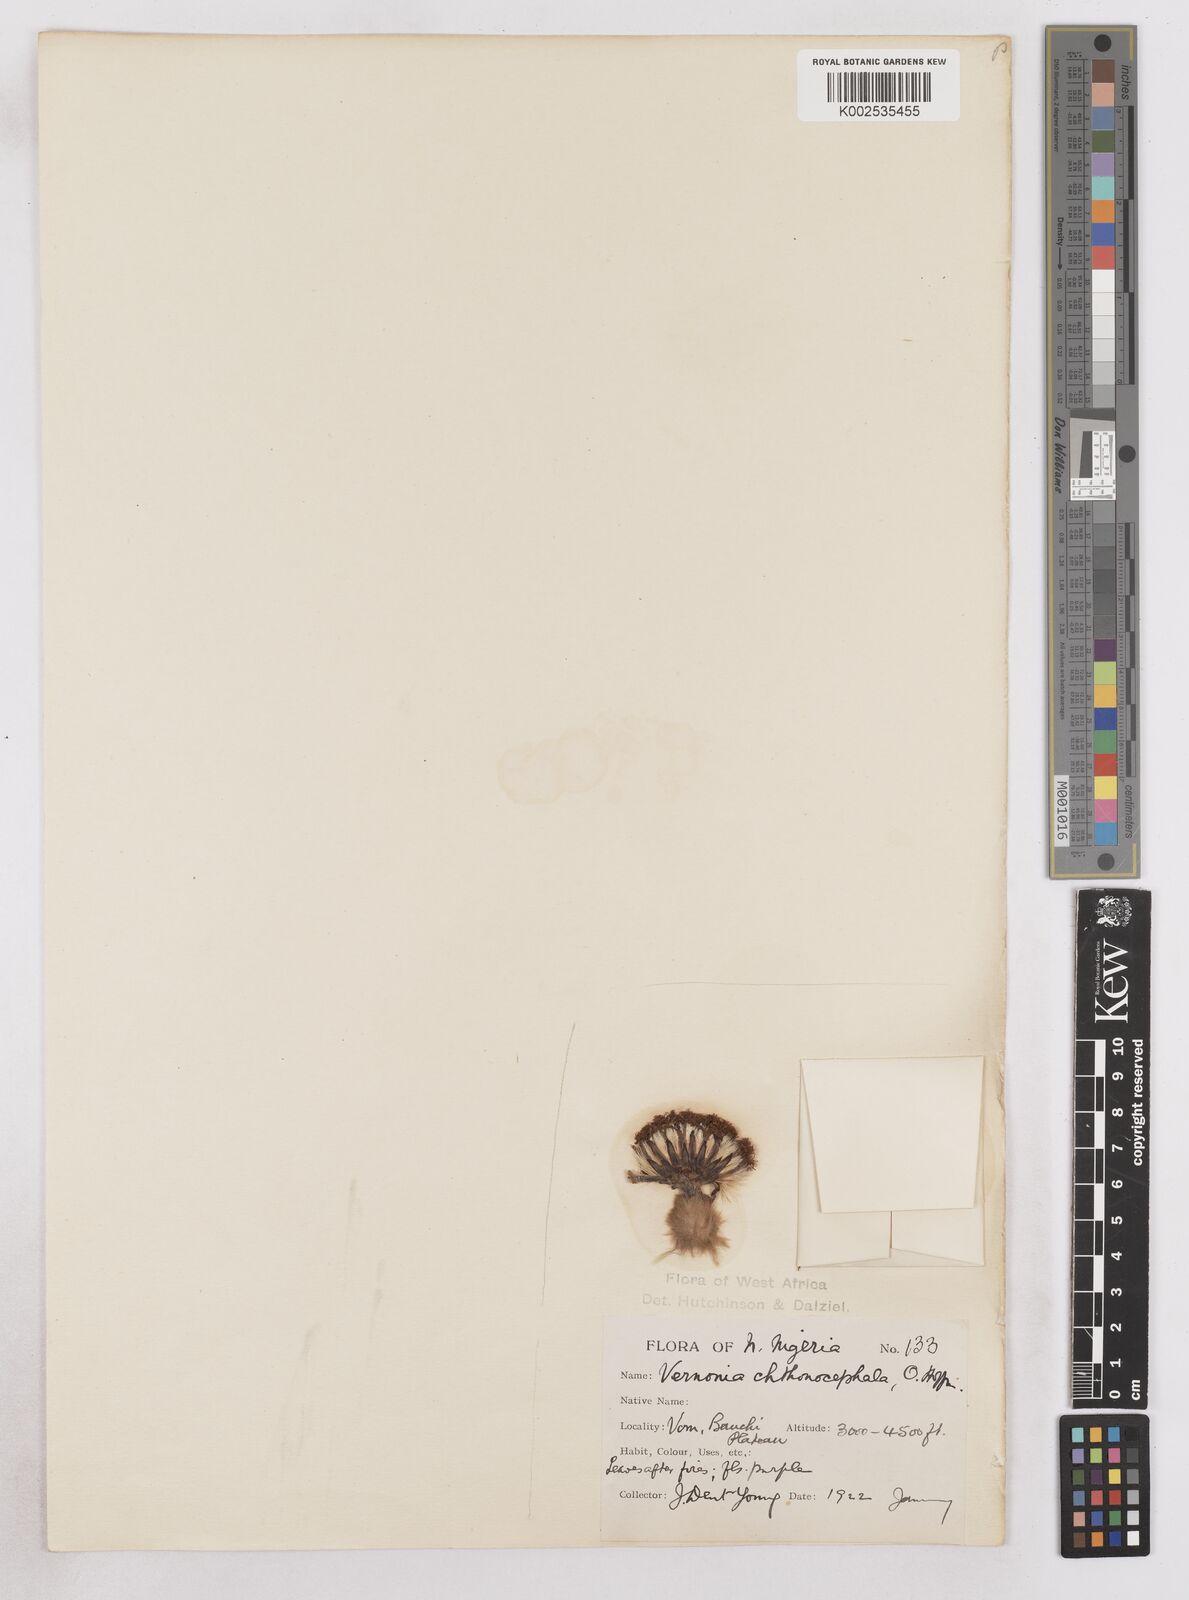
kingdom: Plantae
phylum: Tracheophyta
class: Magnoliopsida
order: Asterales
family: Asteraceae
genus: Vernonella
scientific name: Vernonella chthonocephala
